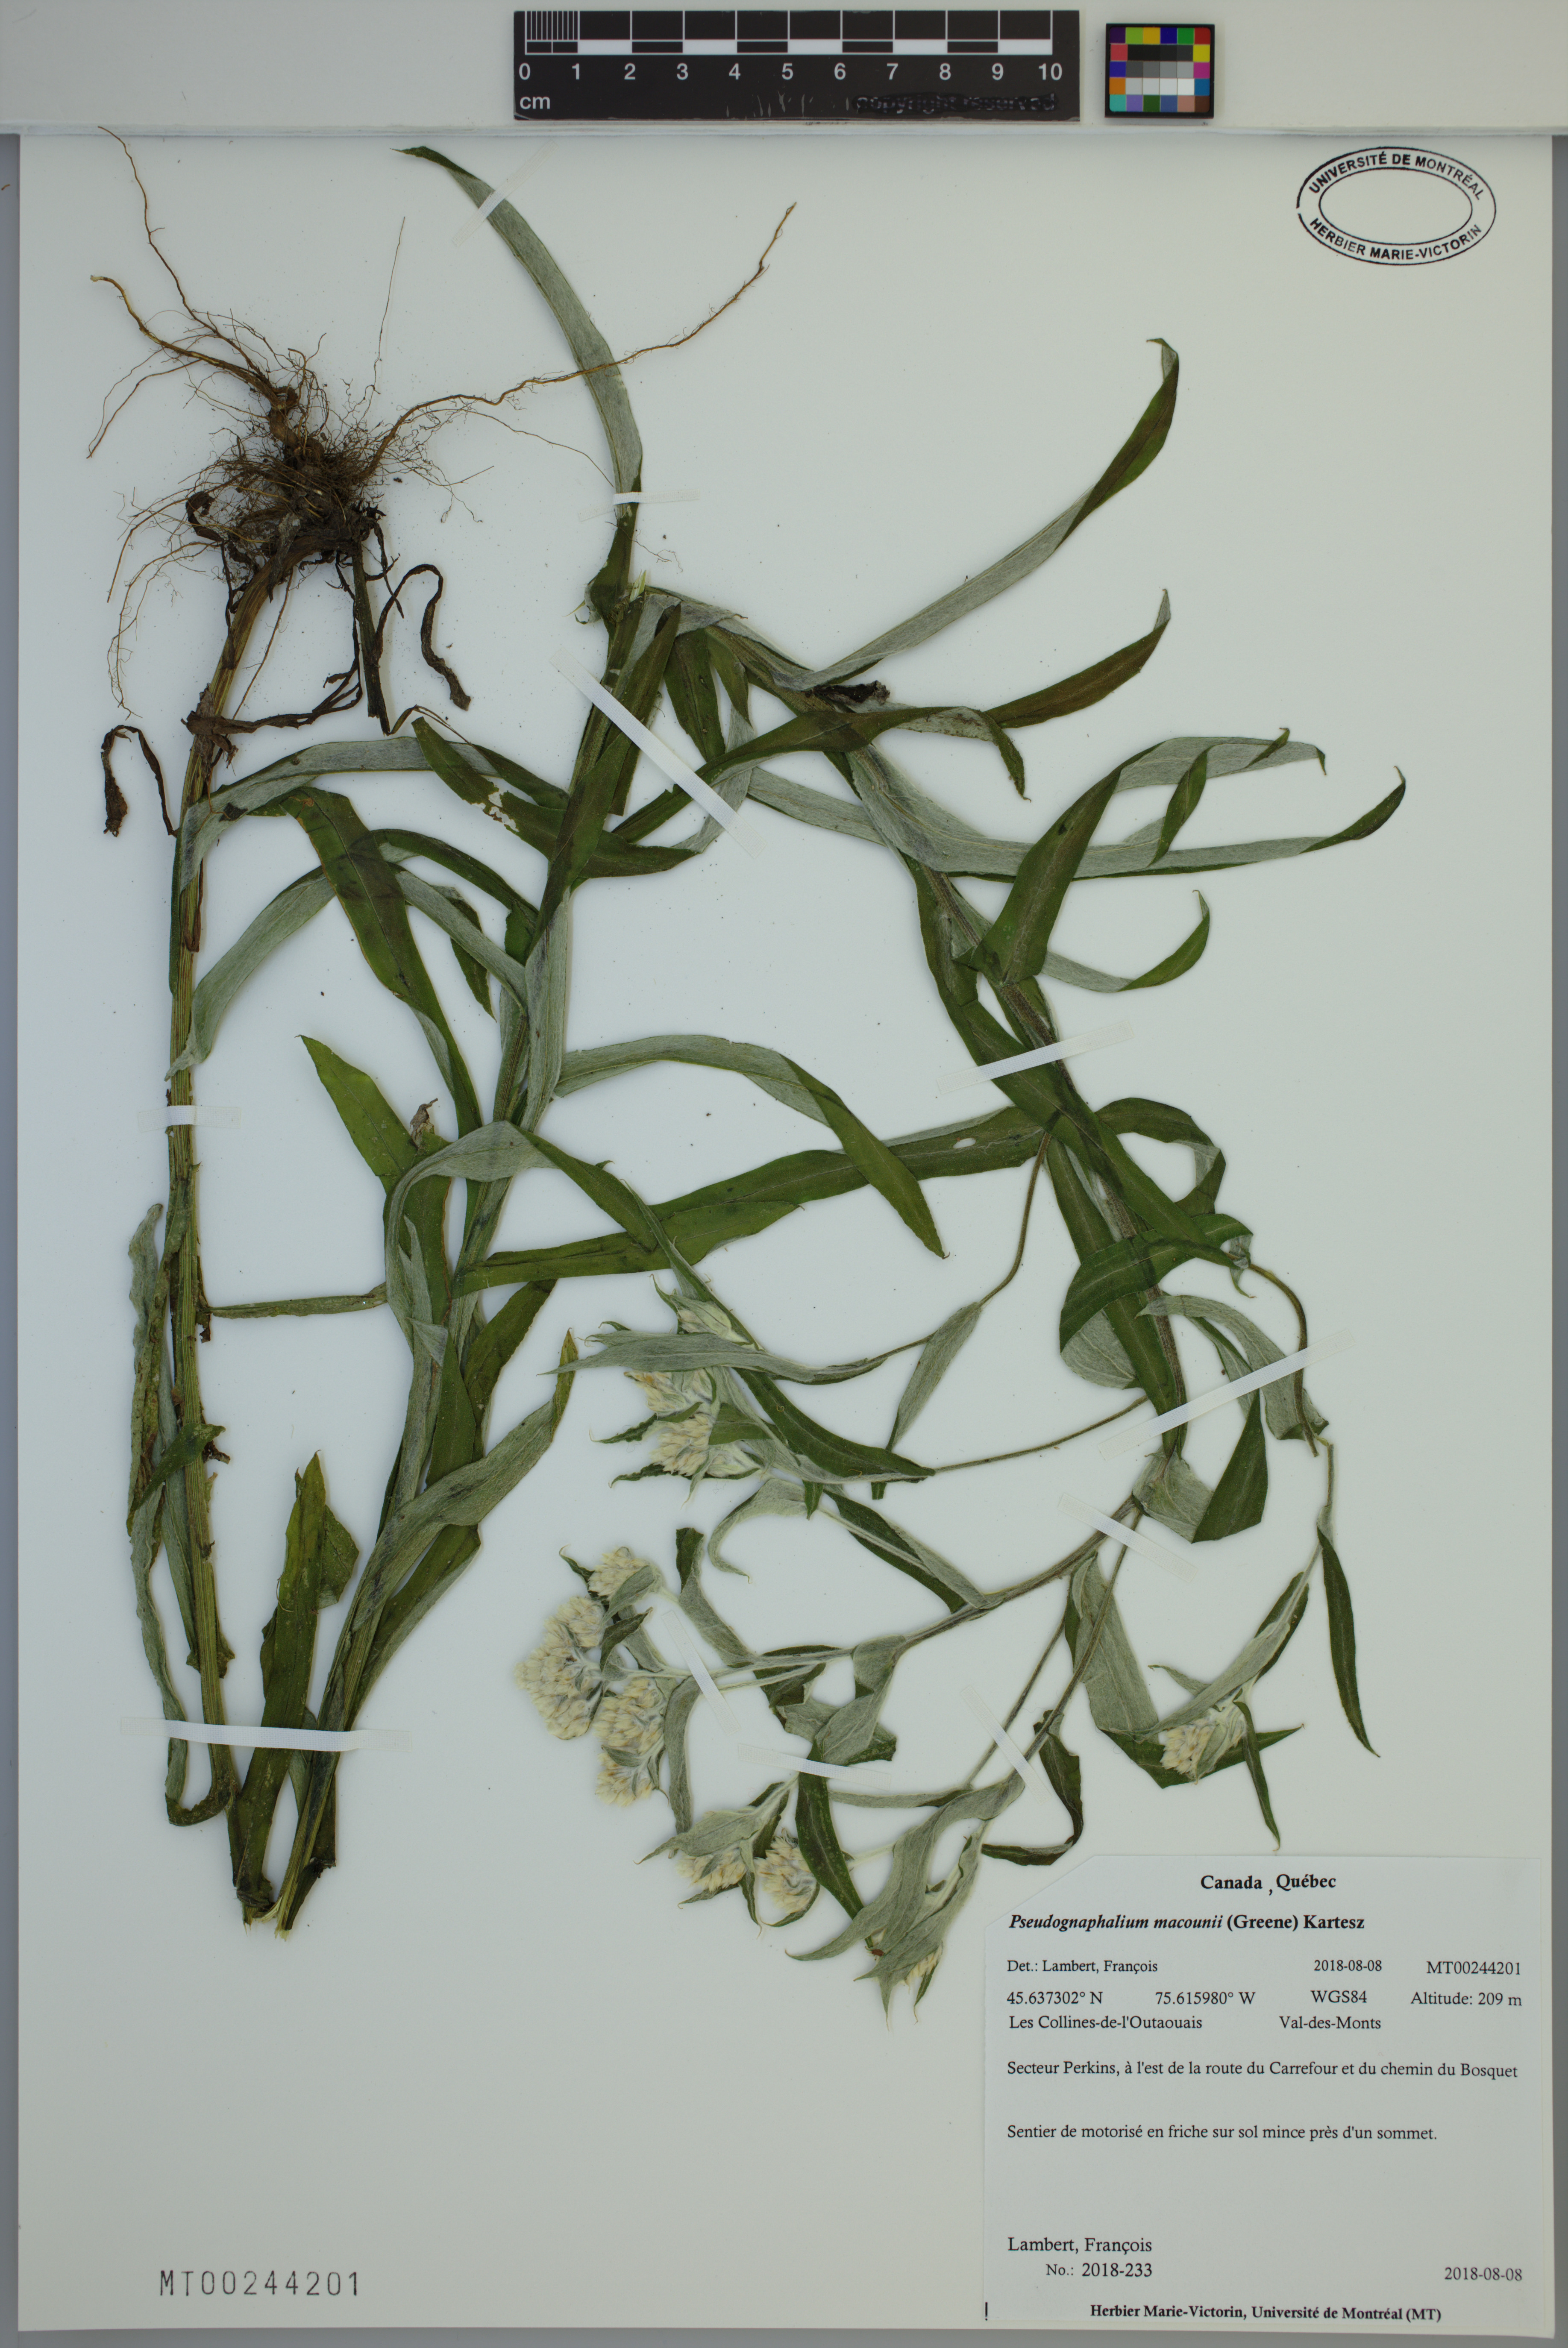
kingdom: Plantae
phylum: Tracheophyta
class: Magnoliopsida
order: Asterales
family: Asteraceae
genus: Pseudognaphalium
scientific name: Pseudognaphalium macounii
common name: Clammy cudweed
